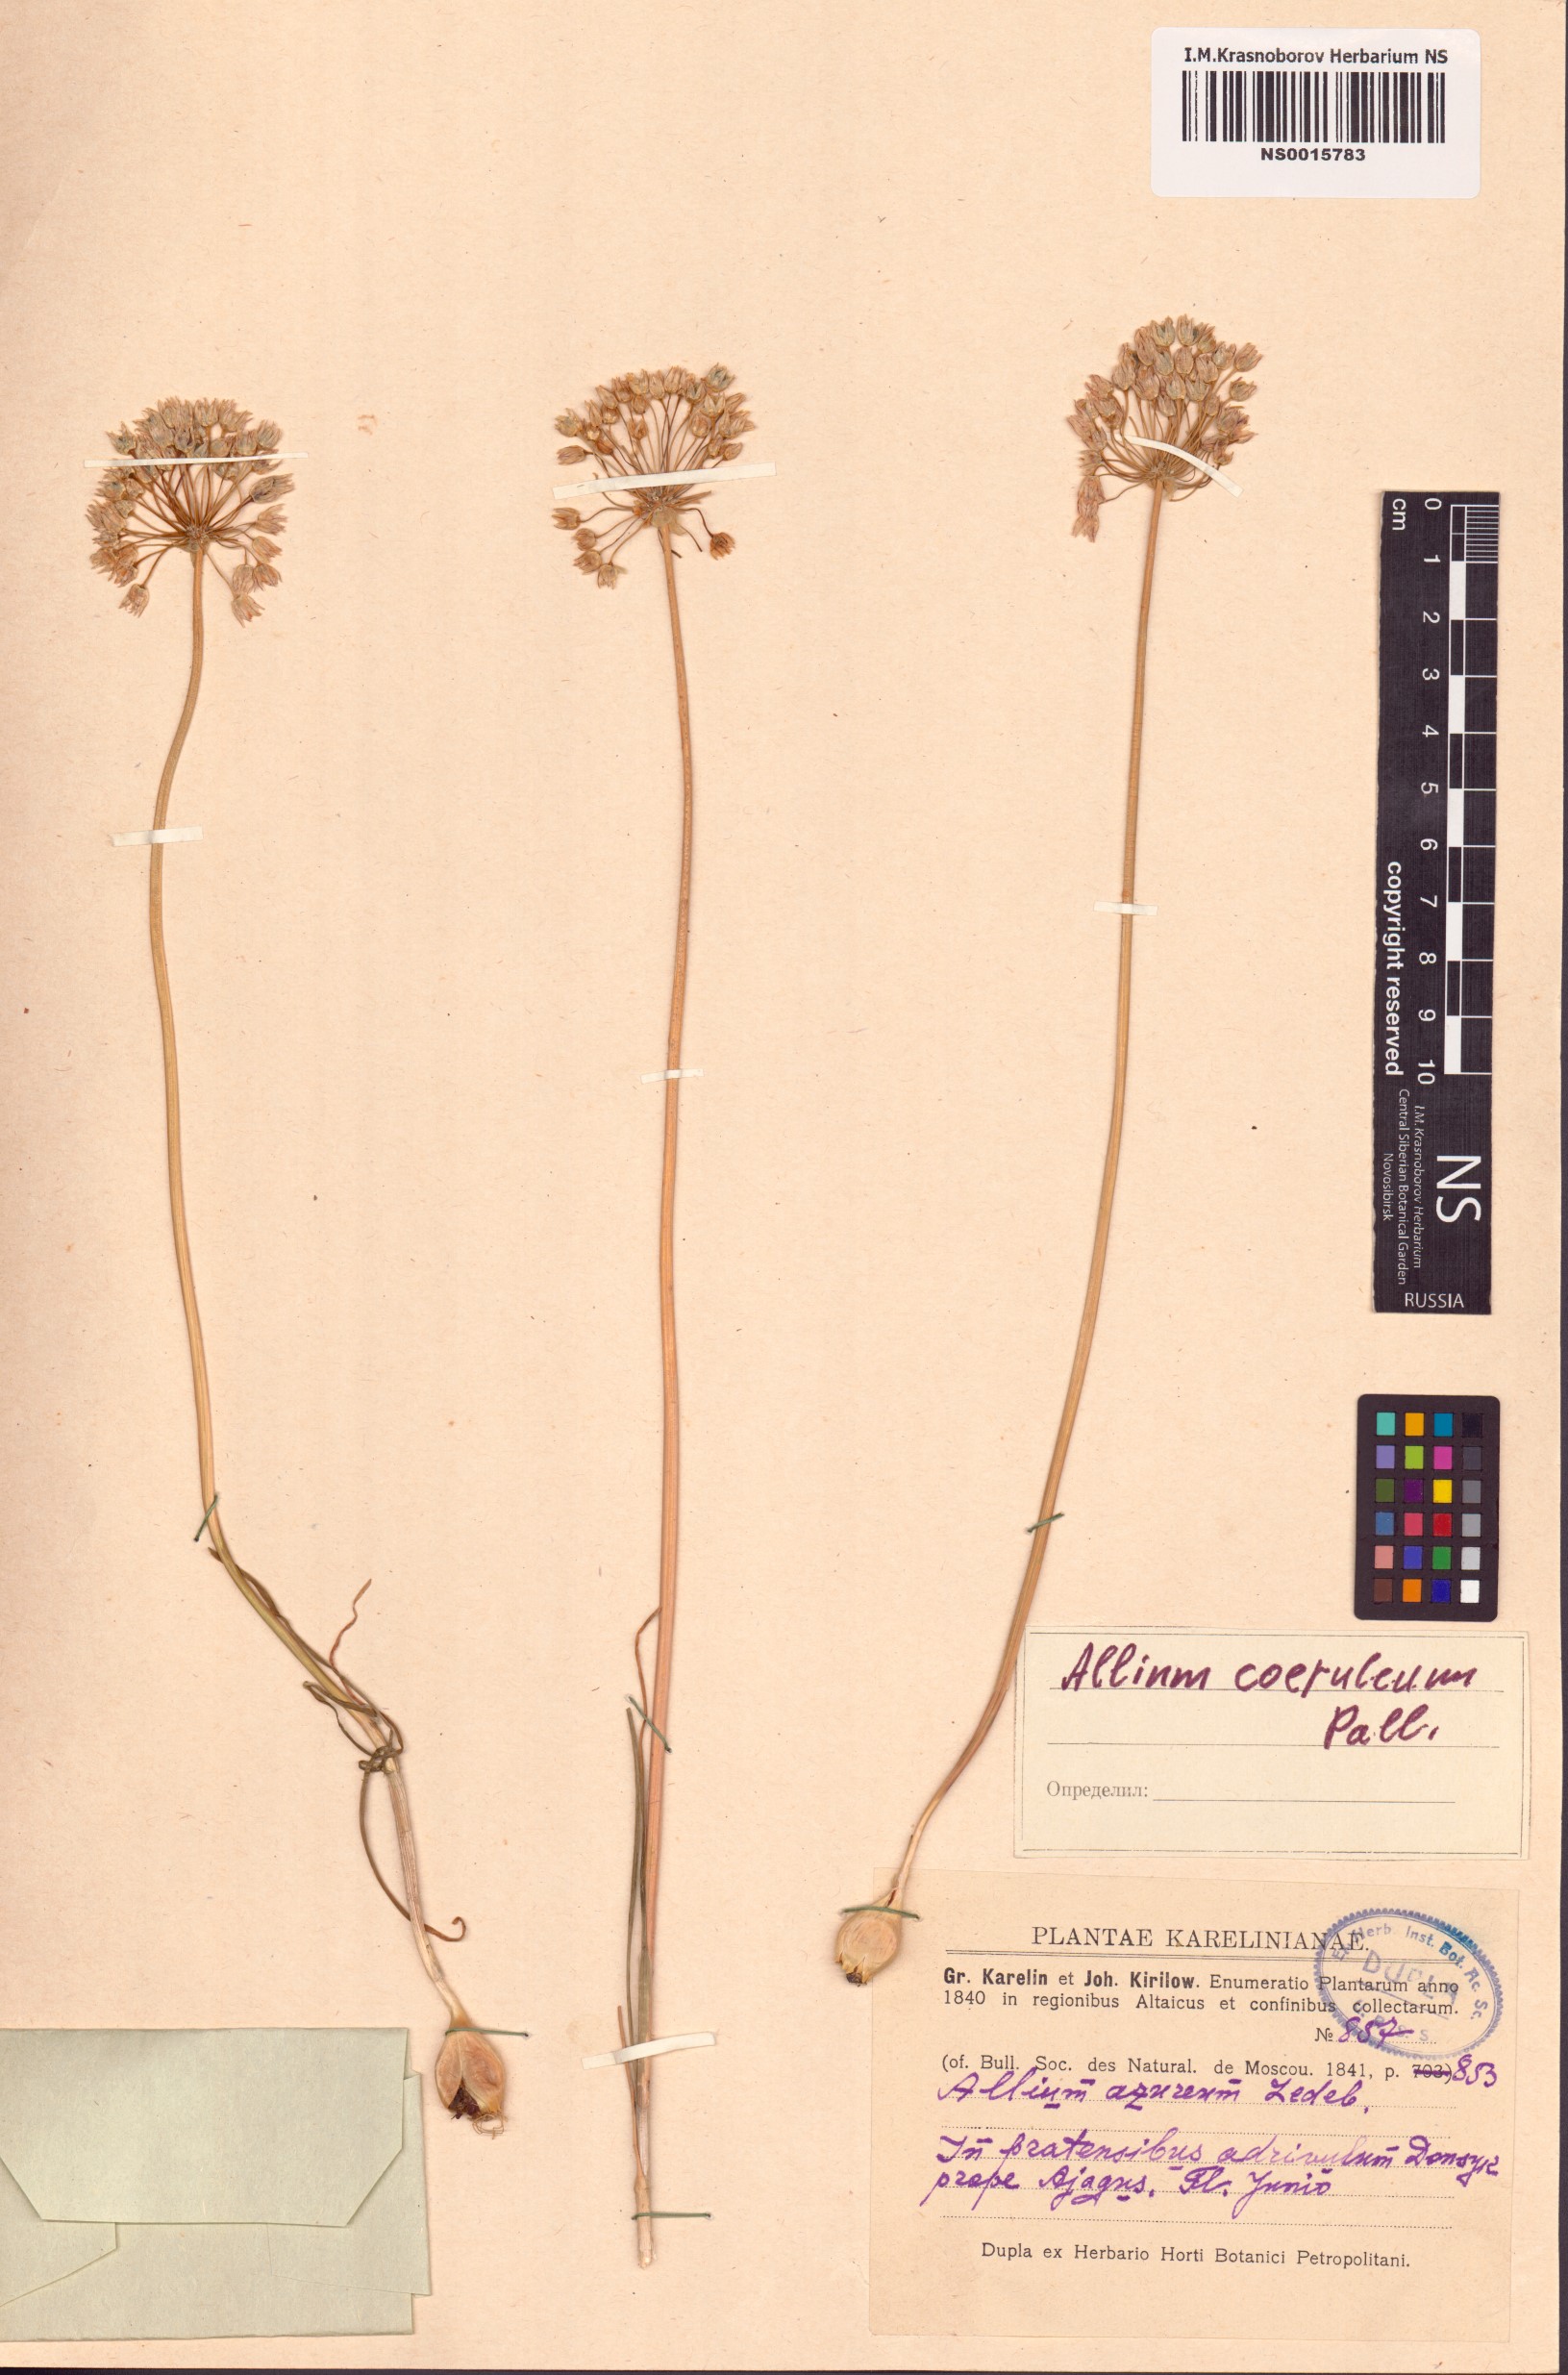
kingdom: Plantae
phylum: Tracheophyta
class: Liliopsida
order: Asparagales
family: Amaryllidaceae
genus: Allium
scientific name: Allium caeruleum
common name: Blue-of-the-heavens
